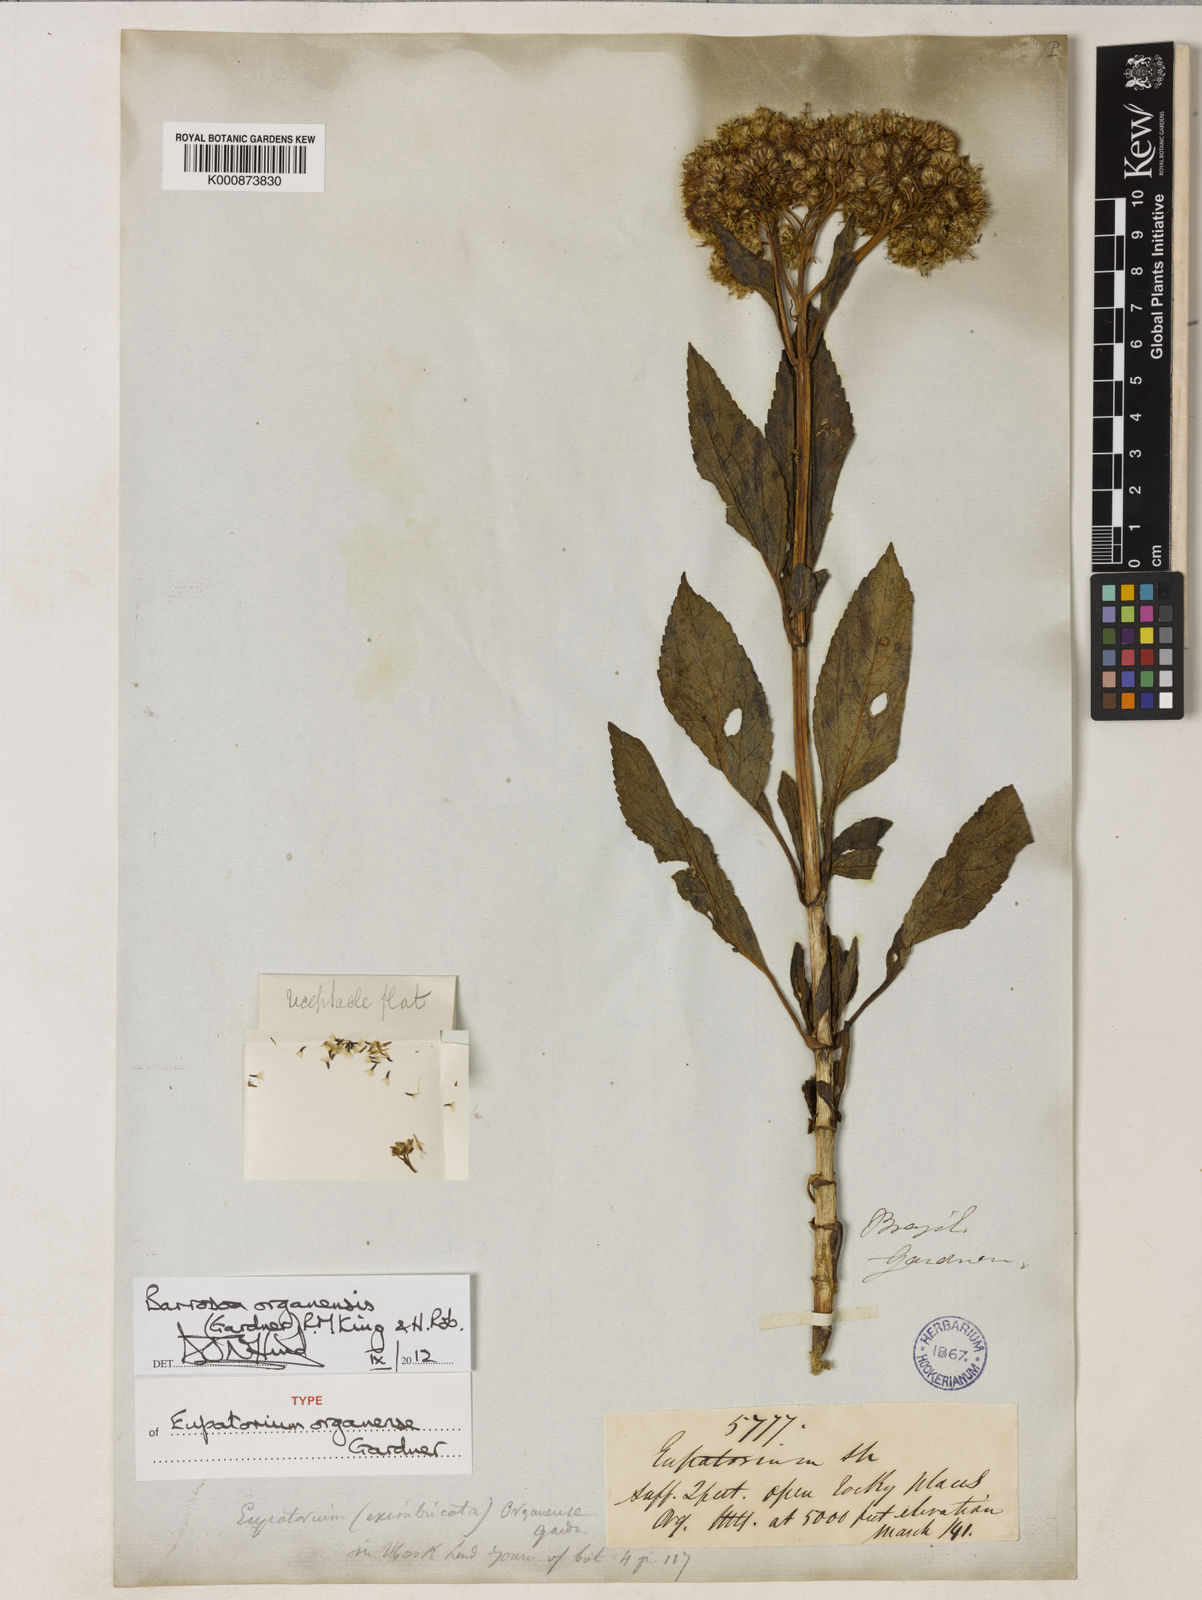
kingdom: Plantae
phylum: Tracheophyta
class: Magnoliopsida
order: Asterales
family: Asteraceae
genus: Barrosoa
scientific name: Barrosoa organensis
